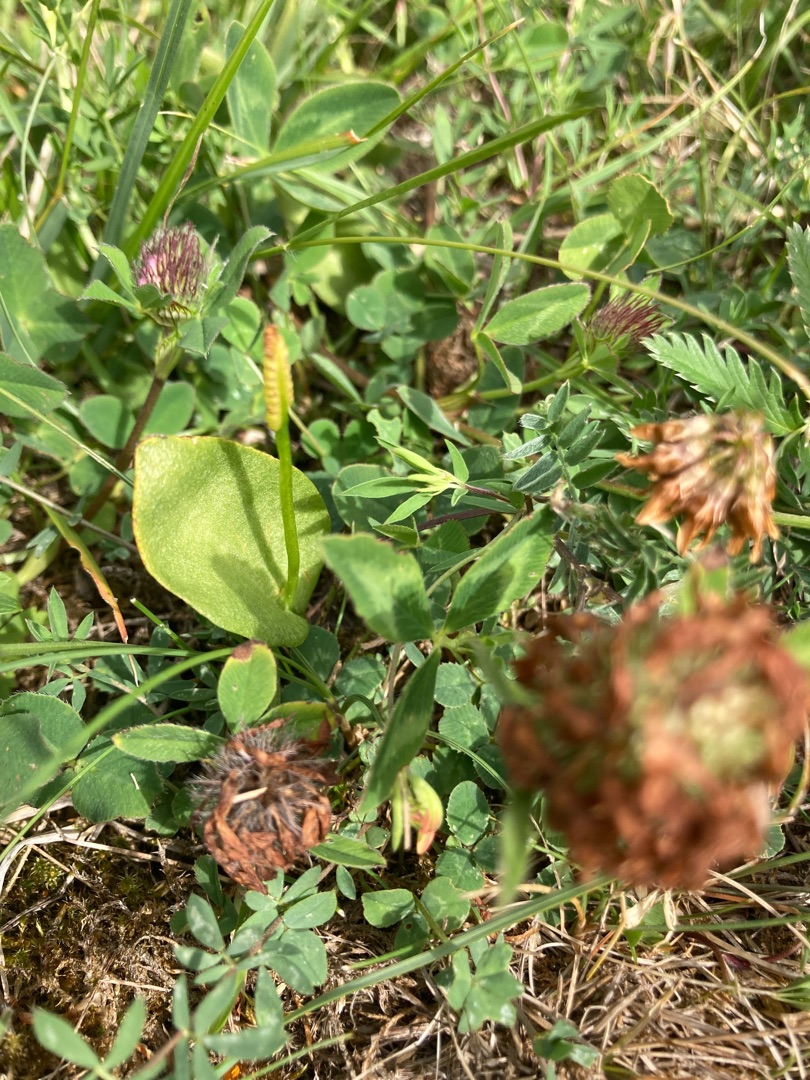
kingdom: Plantae
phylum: Tracheophyta
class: Polypodiopsida
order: Ophioglossales
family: Ophioglossaceae
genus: Ophioglossum
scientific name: Ophioglossum vulgatum
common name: Slangetunge
